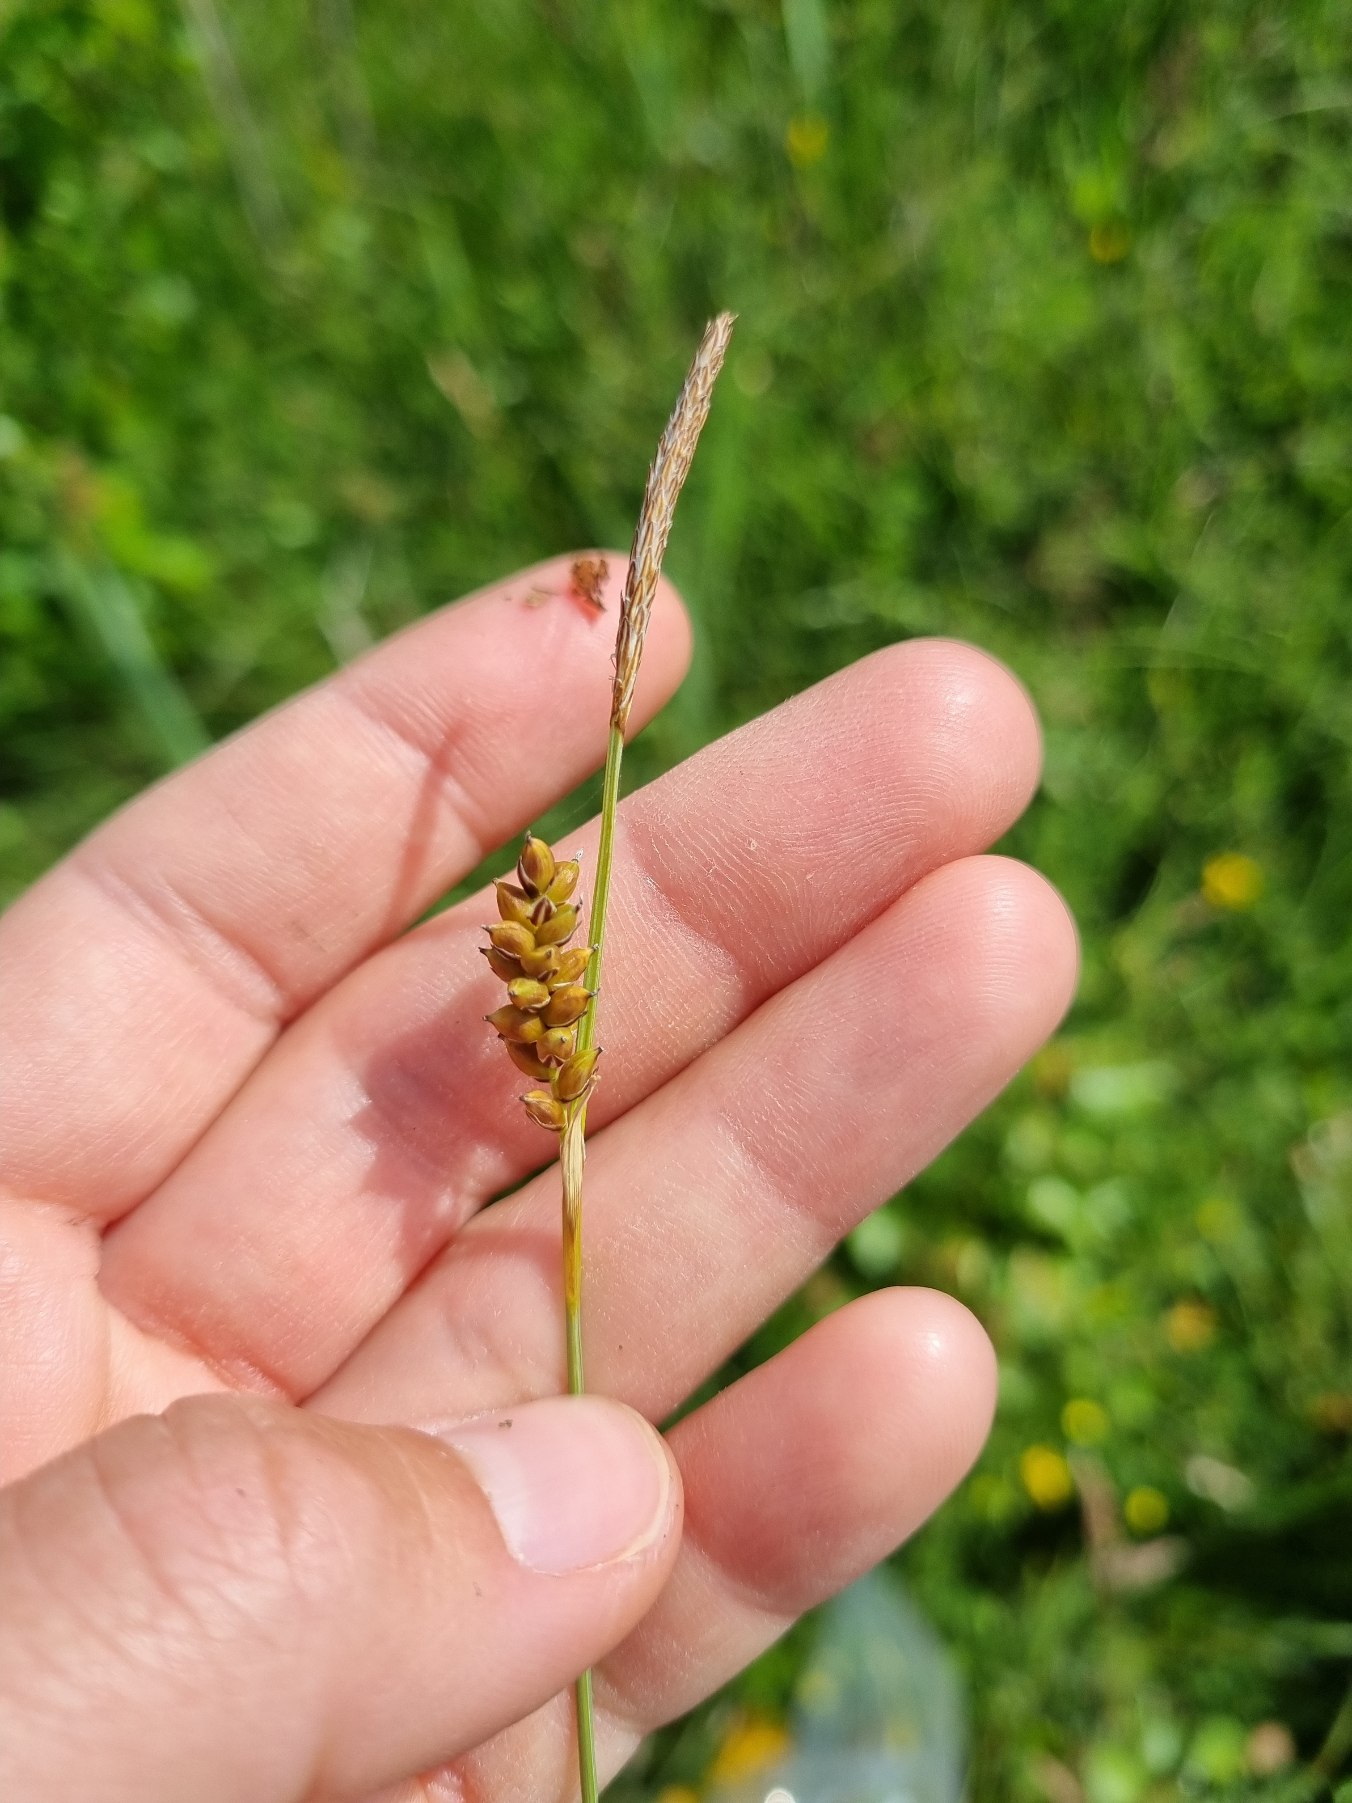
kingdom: Plantae
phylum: Tracheophyta
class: Liliopsida
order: Poales
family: Cyperaceae
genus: Carex
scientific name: Carex panicea
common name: Hirse-star
